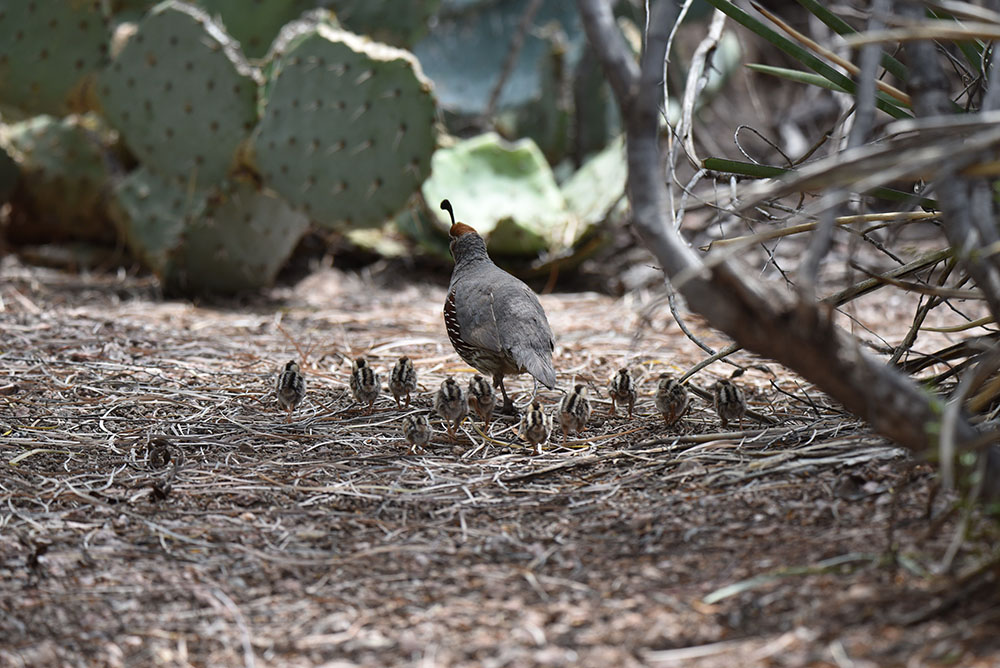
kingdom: Animalia
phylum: Chordata
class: Aves
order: Galliformes
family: Odontophoridae
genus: Callipepla
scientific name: Callipepla gambelii
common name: Gambel's quail
